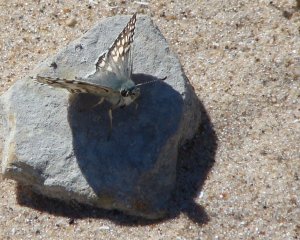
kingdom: Animalia
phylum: Arthropoda
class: Insecta
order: Lepidoptera
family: Hesperiidae
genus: Pyrgus
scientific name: Pyrgus communis
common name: Common Checkered-Skipper
